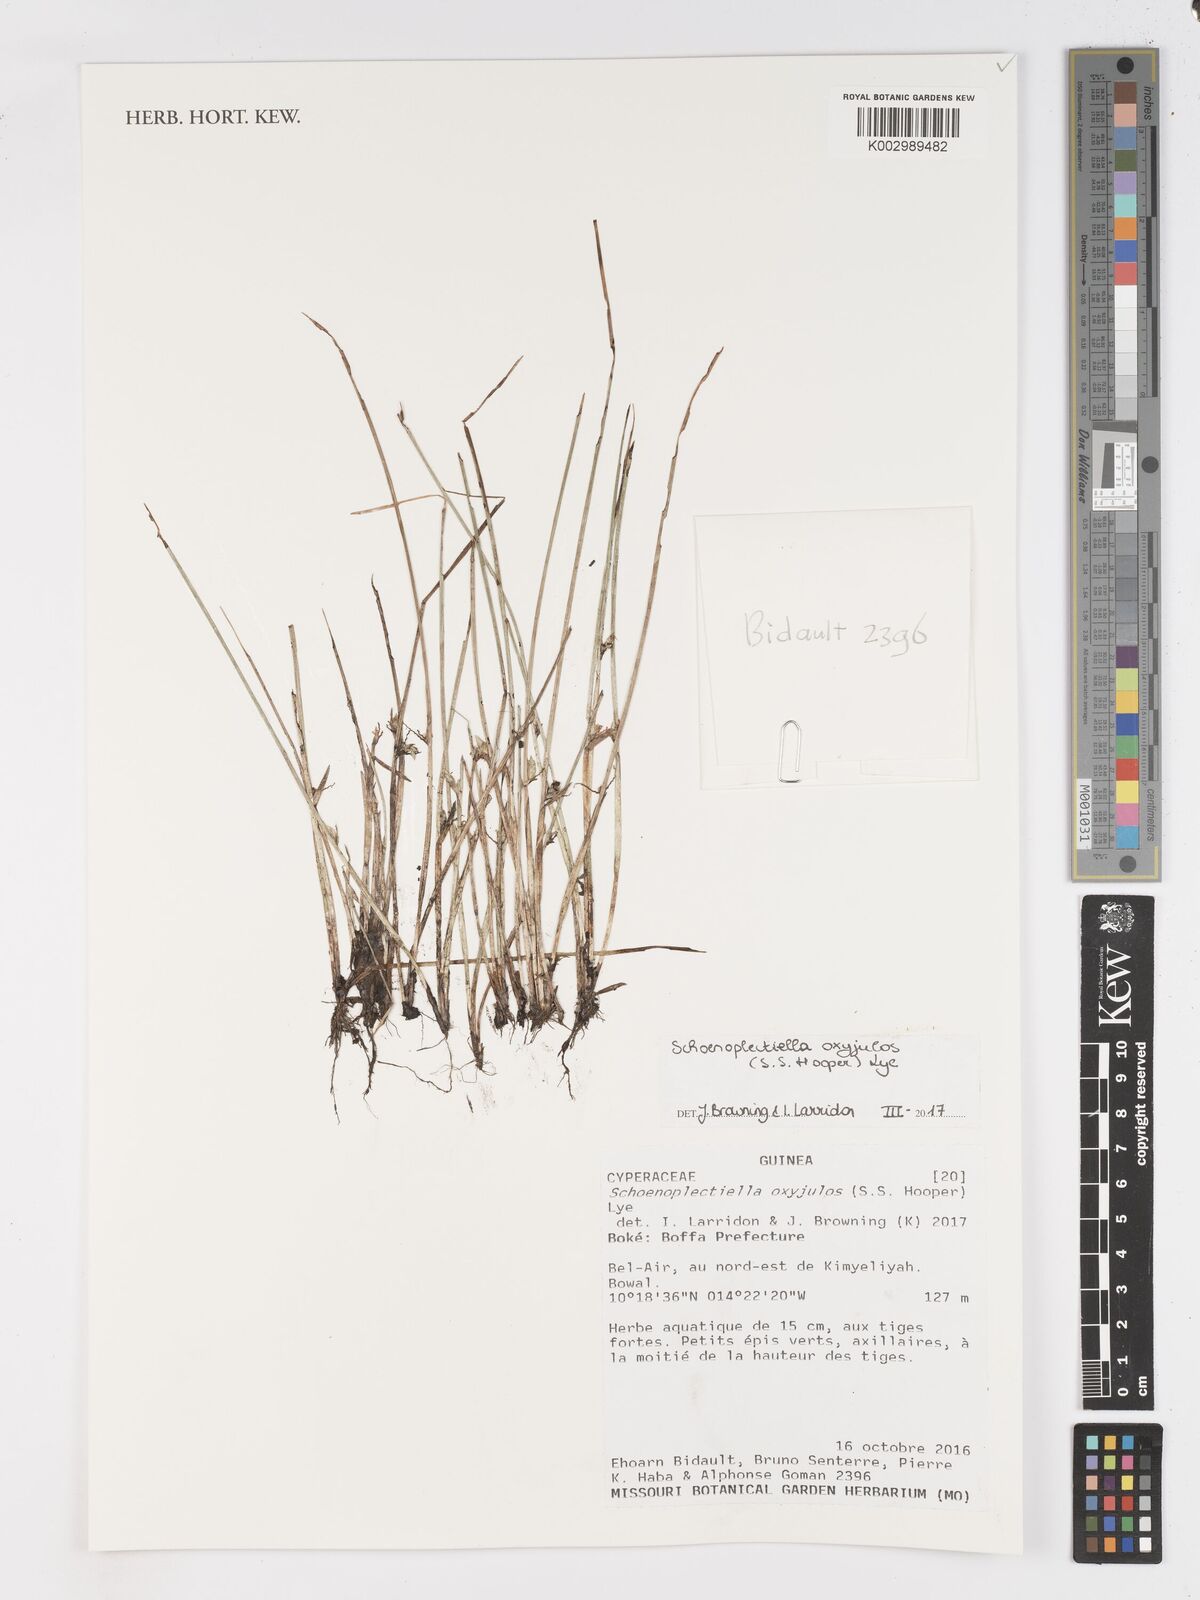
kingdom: Plantae
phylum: Tracheophyta
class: Liliopsida
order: Poales
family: Cyperaceae
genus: Schoenoplectiella
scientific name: Schoenoplectiella oxyjulos
